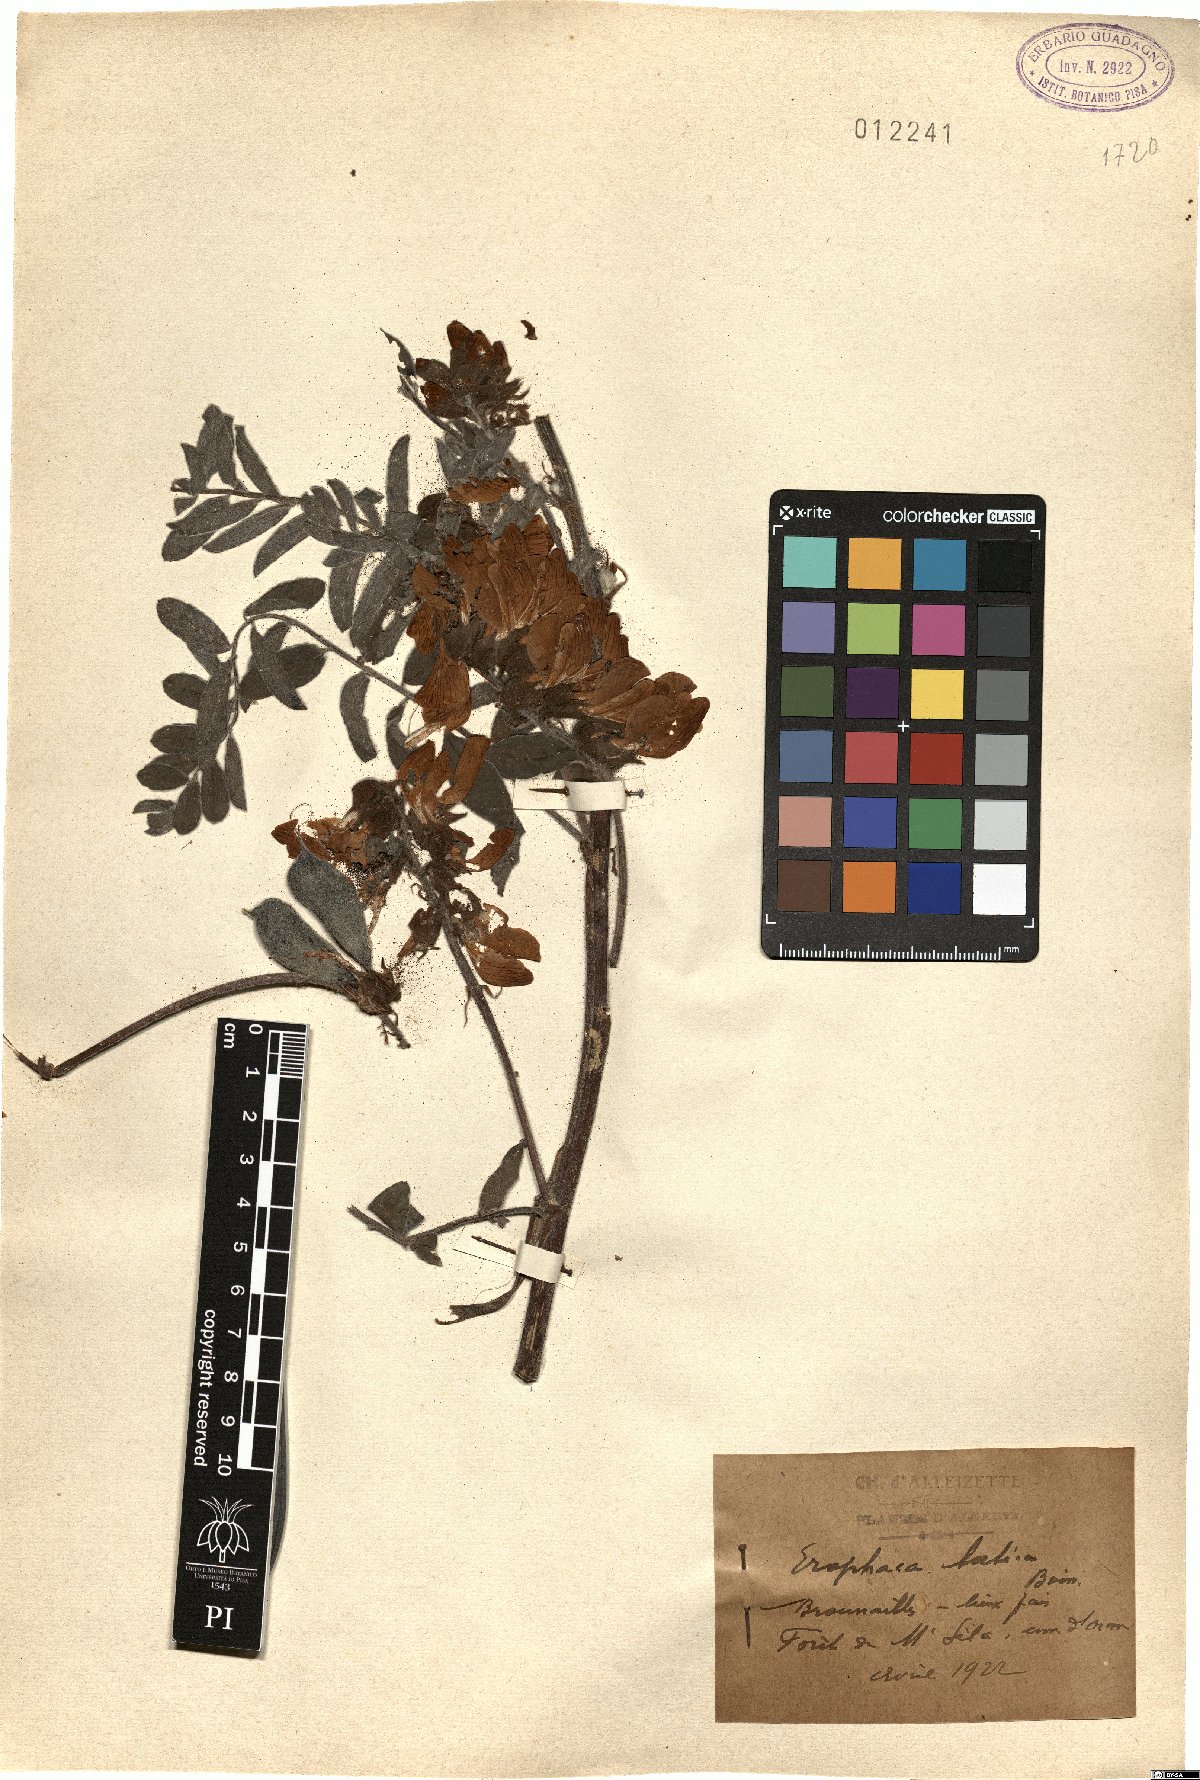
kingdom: Plantae
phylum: Tracheophyta
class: Magnoliopsida
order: Fabales
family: Fabaceae
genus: Erophaca
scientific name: Erophaca baetica
